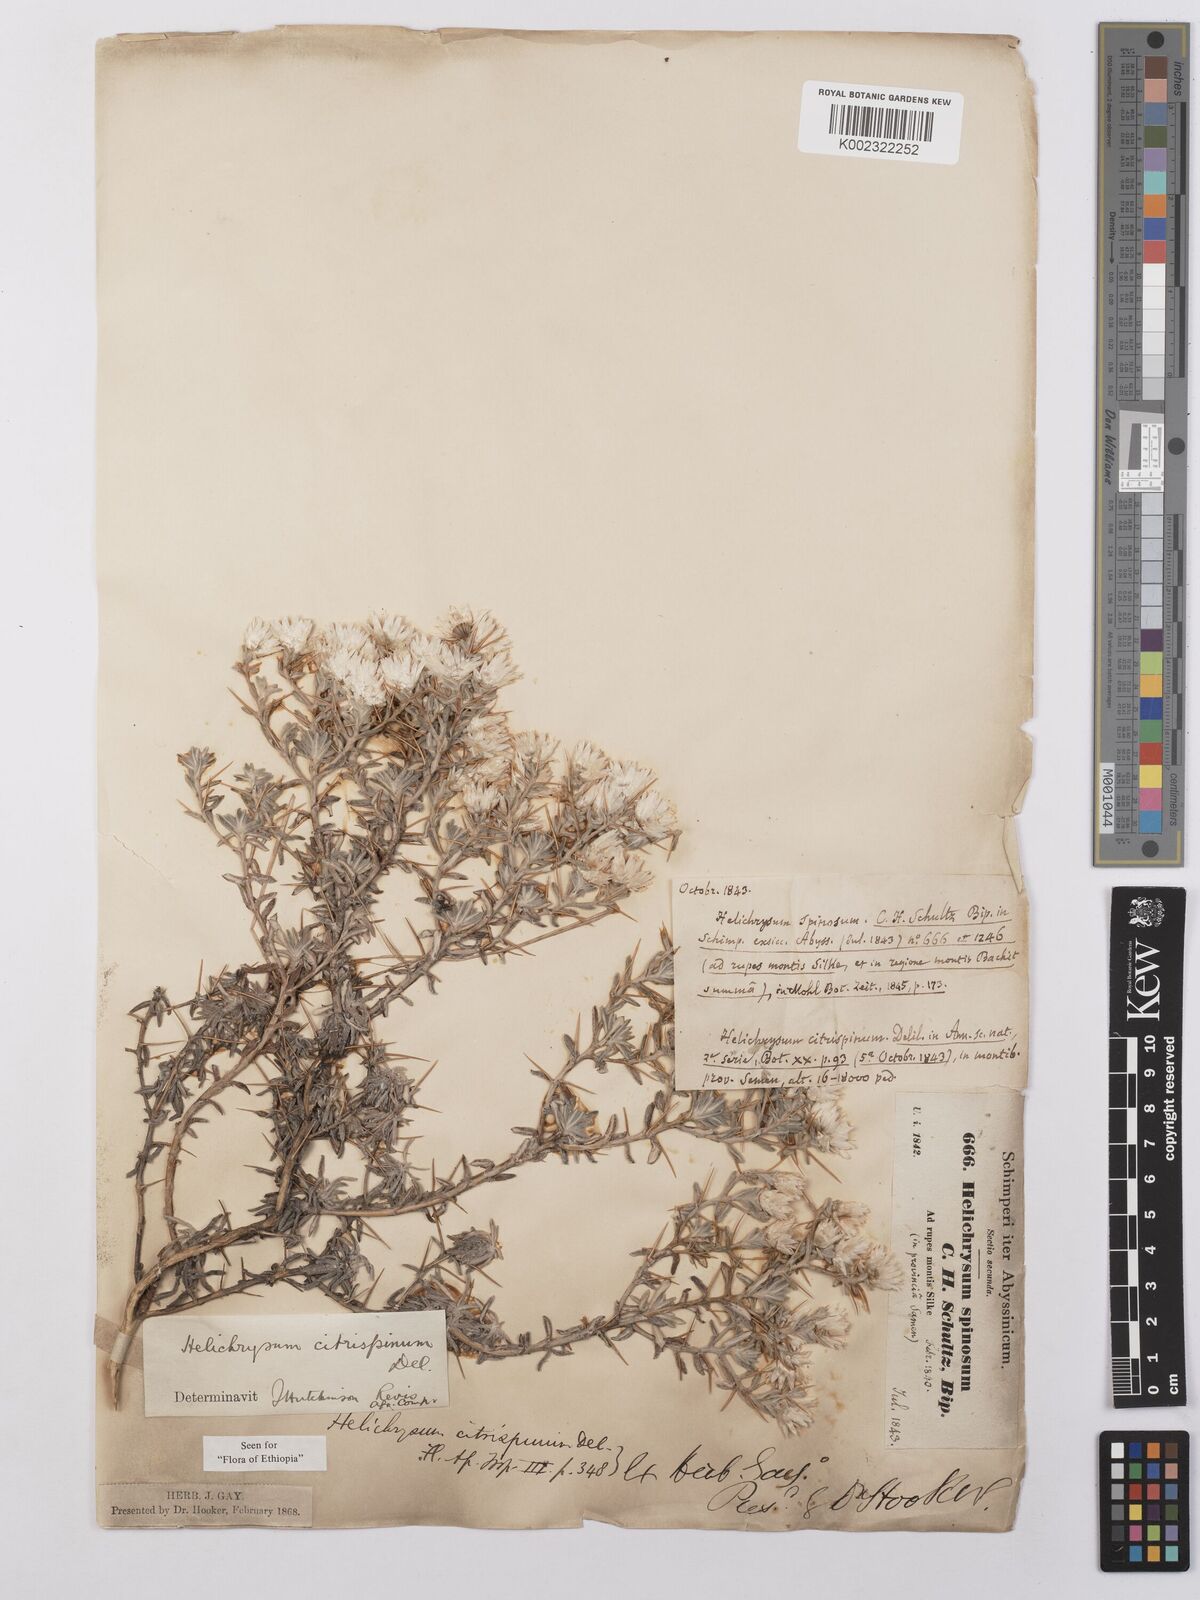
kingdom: Plantae
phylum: Tracheophyta
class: Magnoliopsida
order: Asterales
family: Asteraceae
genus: Helichrysum
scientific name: Helichrysum citrispinum
